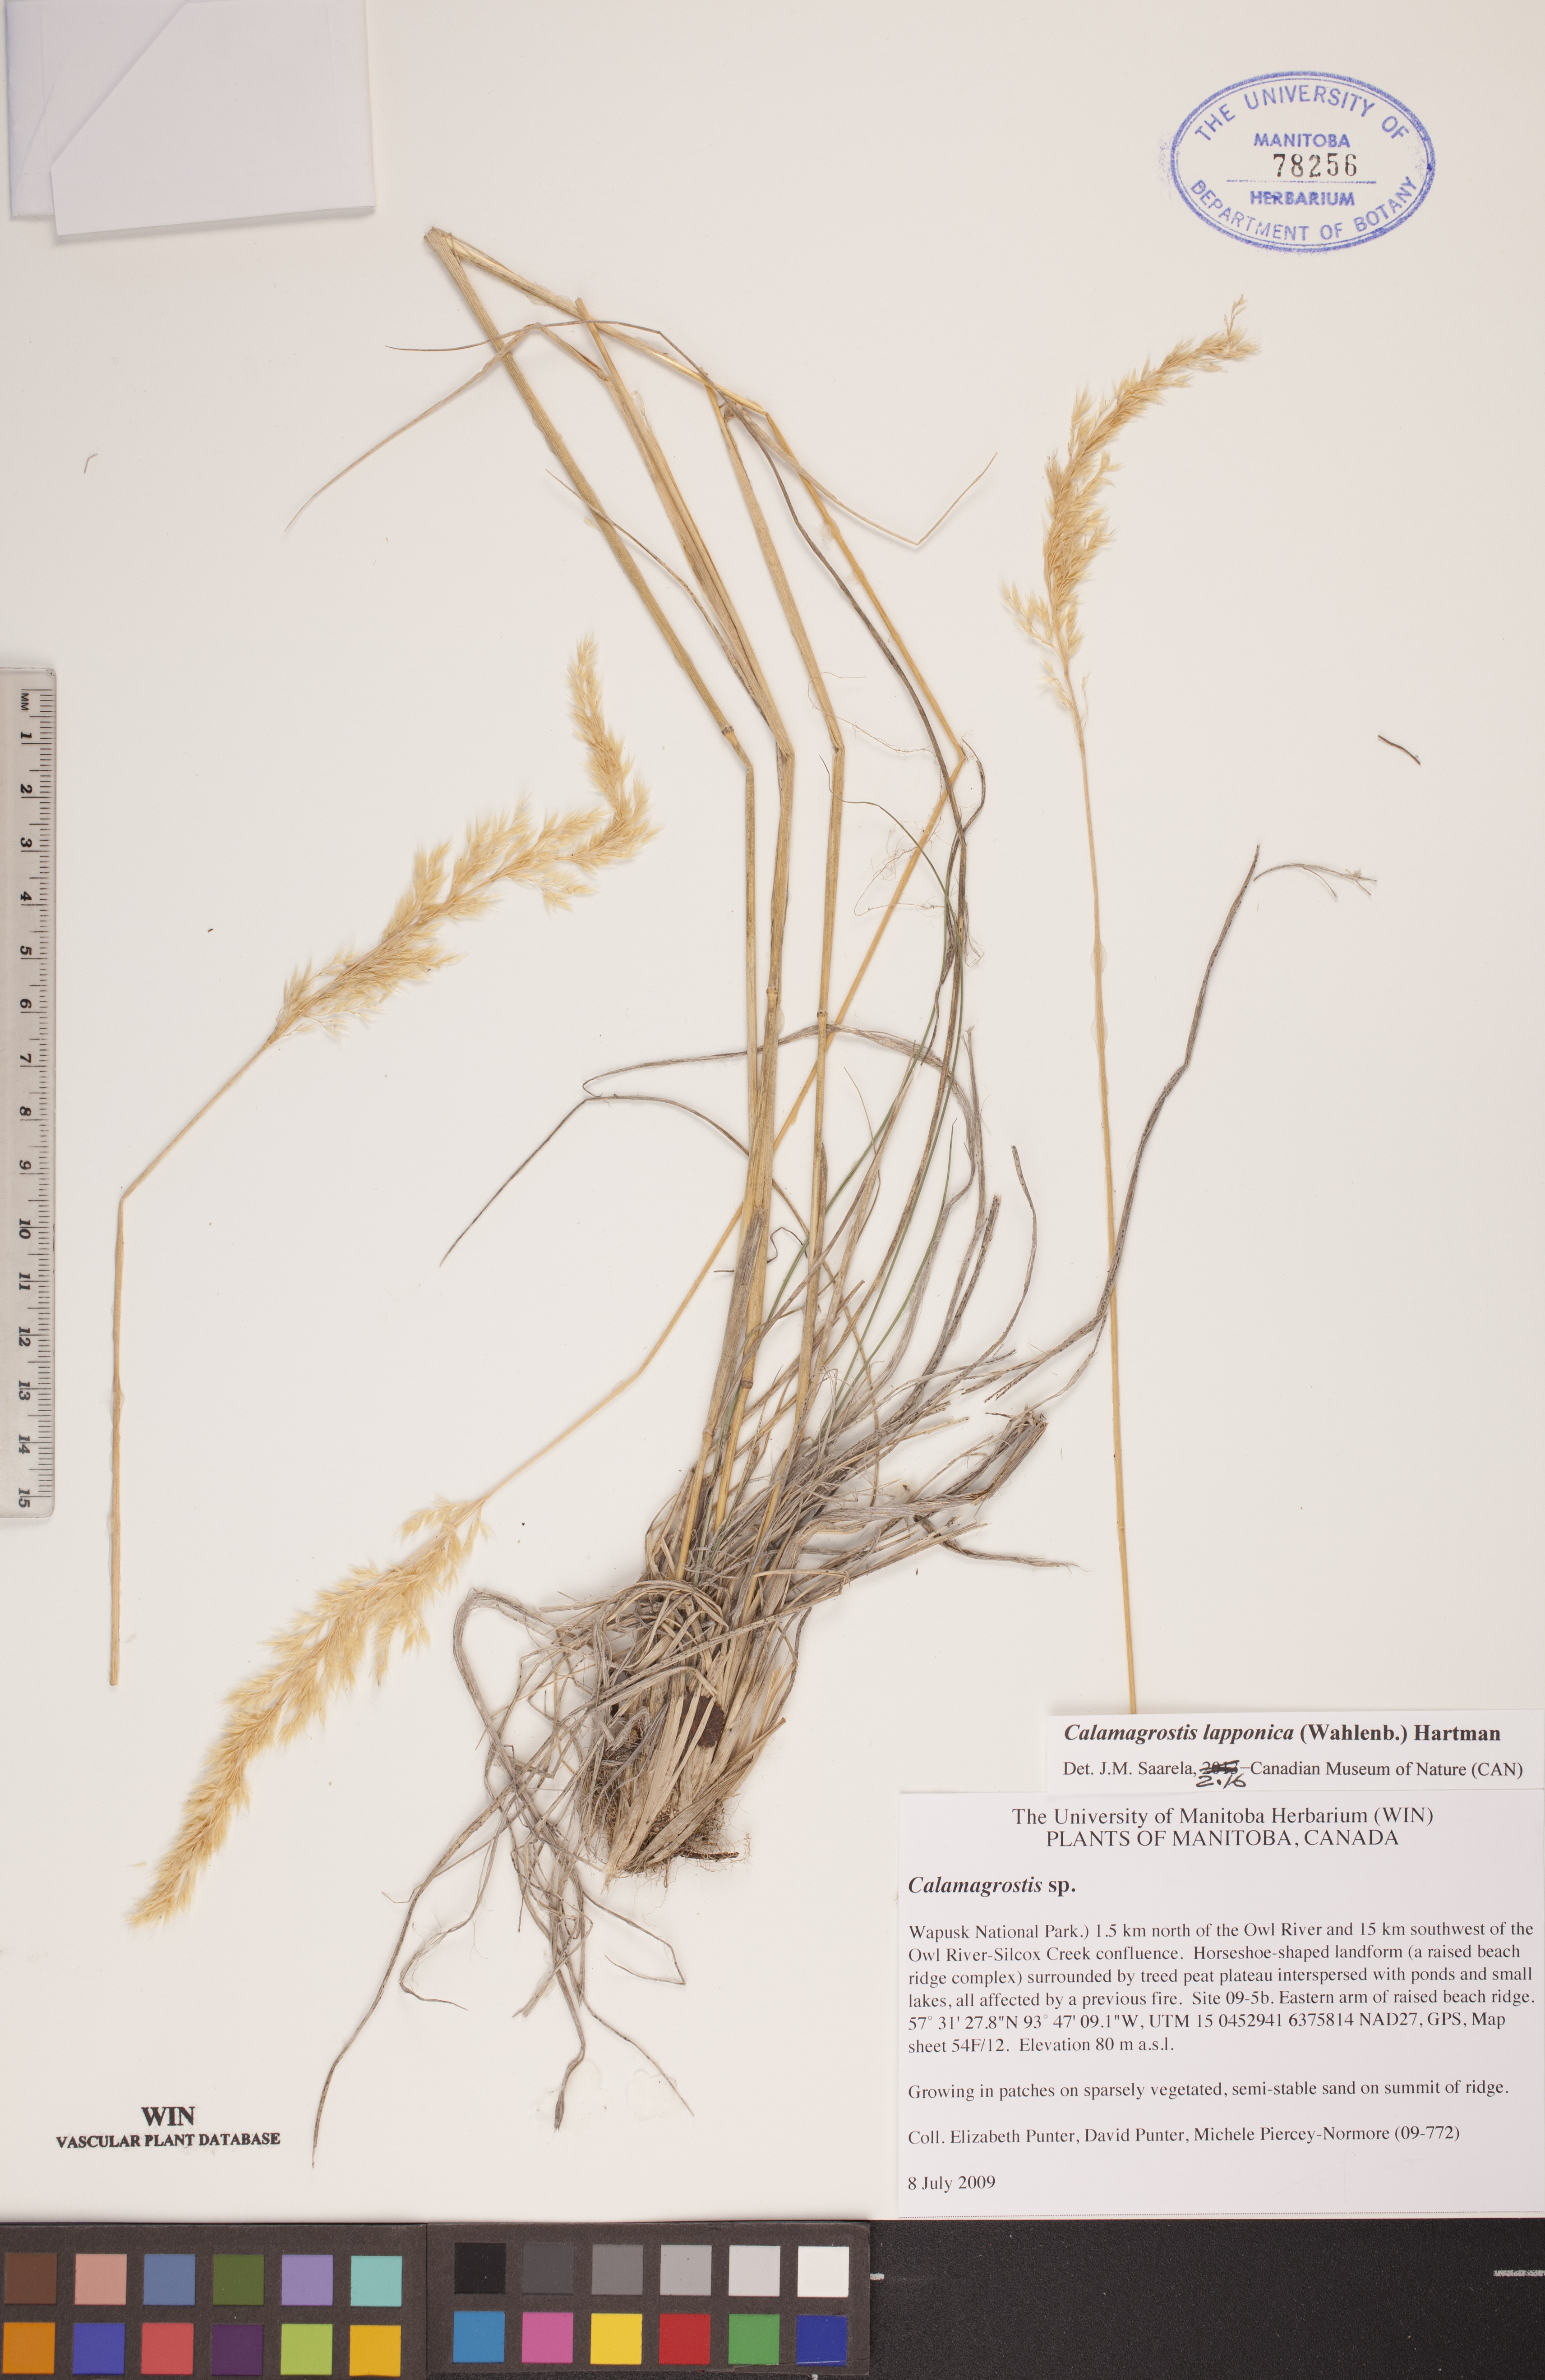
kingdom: Plantae
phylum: Tracheophyta
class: Liliopsida
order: Poales
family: Poaceae
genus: Calamagrostis
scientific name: Calamagrostis lapponica
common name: Lapland reedgrass
